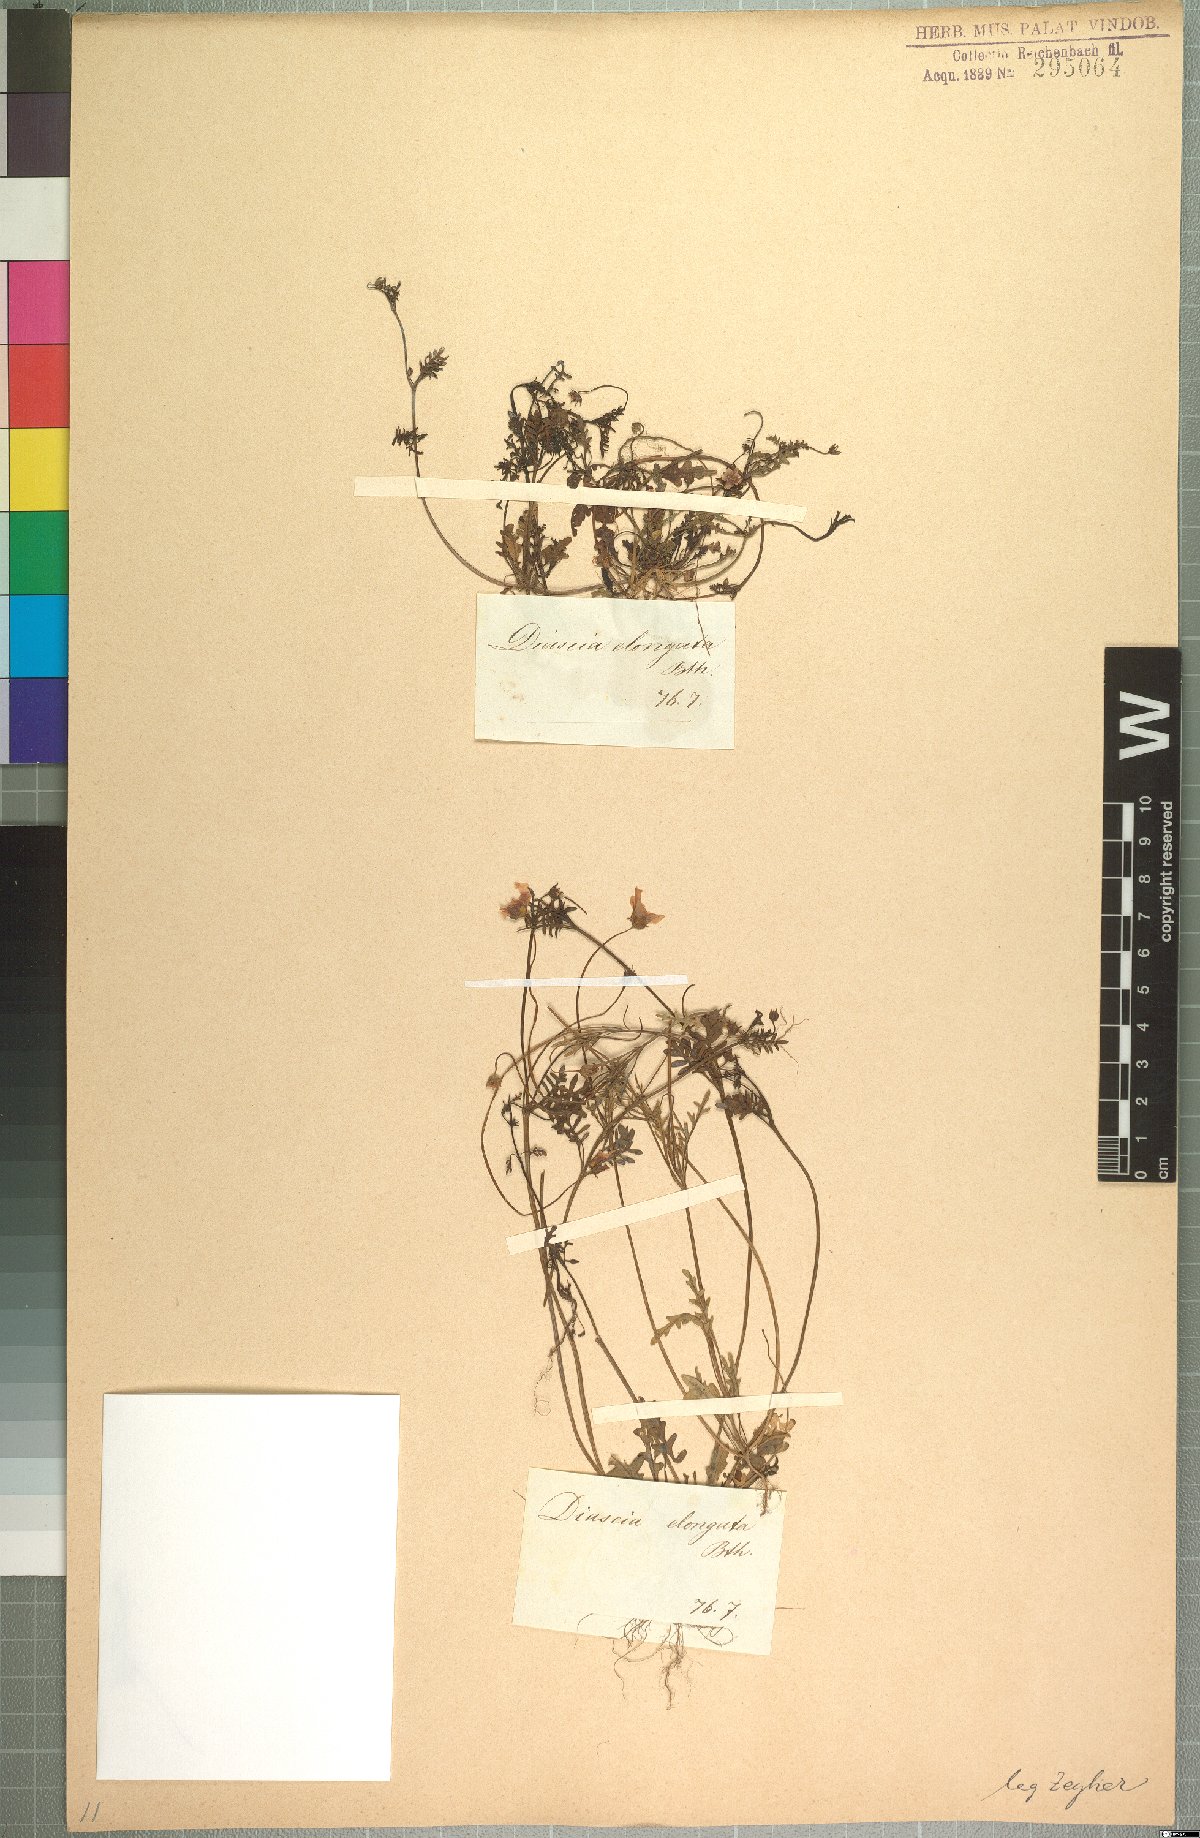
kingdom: Plantae
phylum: Tracheophyta
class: Magnoliopsida
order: Lamiales
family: Scrophulariaceae
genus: Diascia
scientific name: Diascia elongata
